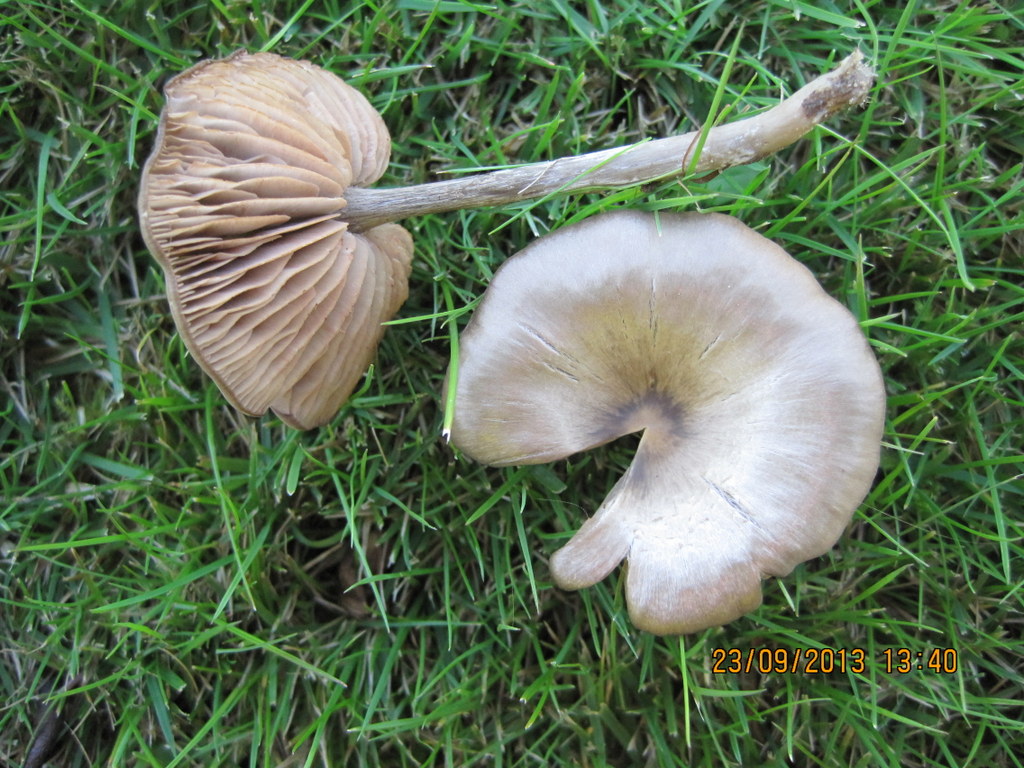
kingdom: Fungi
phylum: Basidiomycota
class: Agaricomycetes
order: Agaricales
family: Entolomataceae
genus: Entoloma
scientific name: Entoloma sericeum
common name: silkeglinsende rødblad
